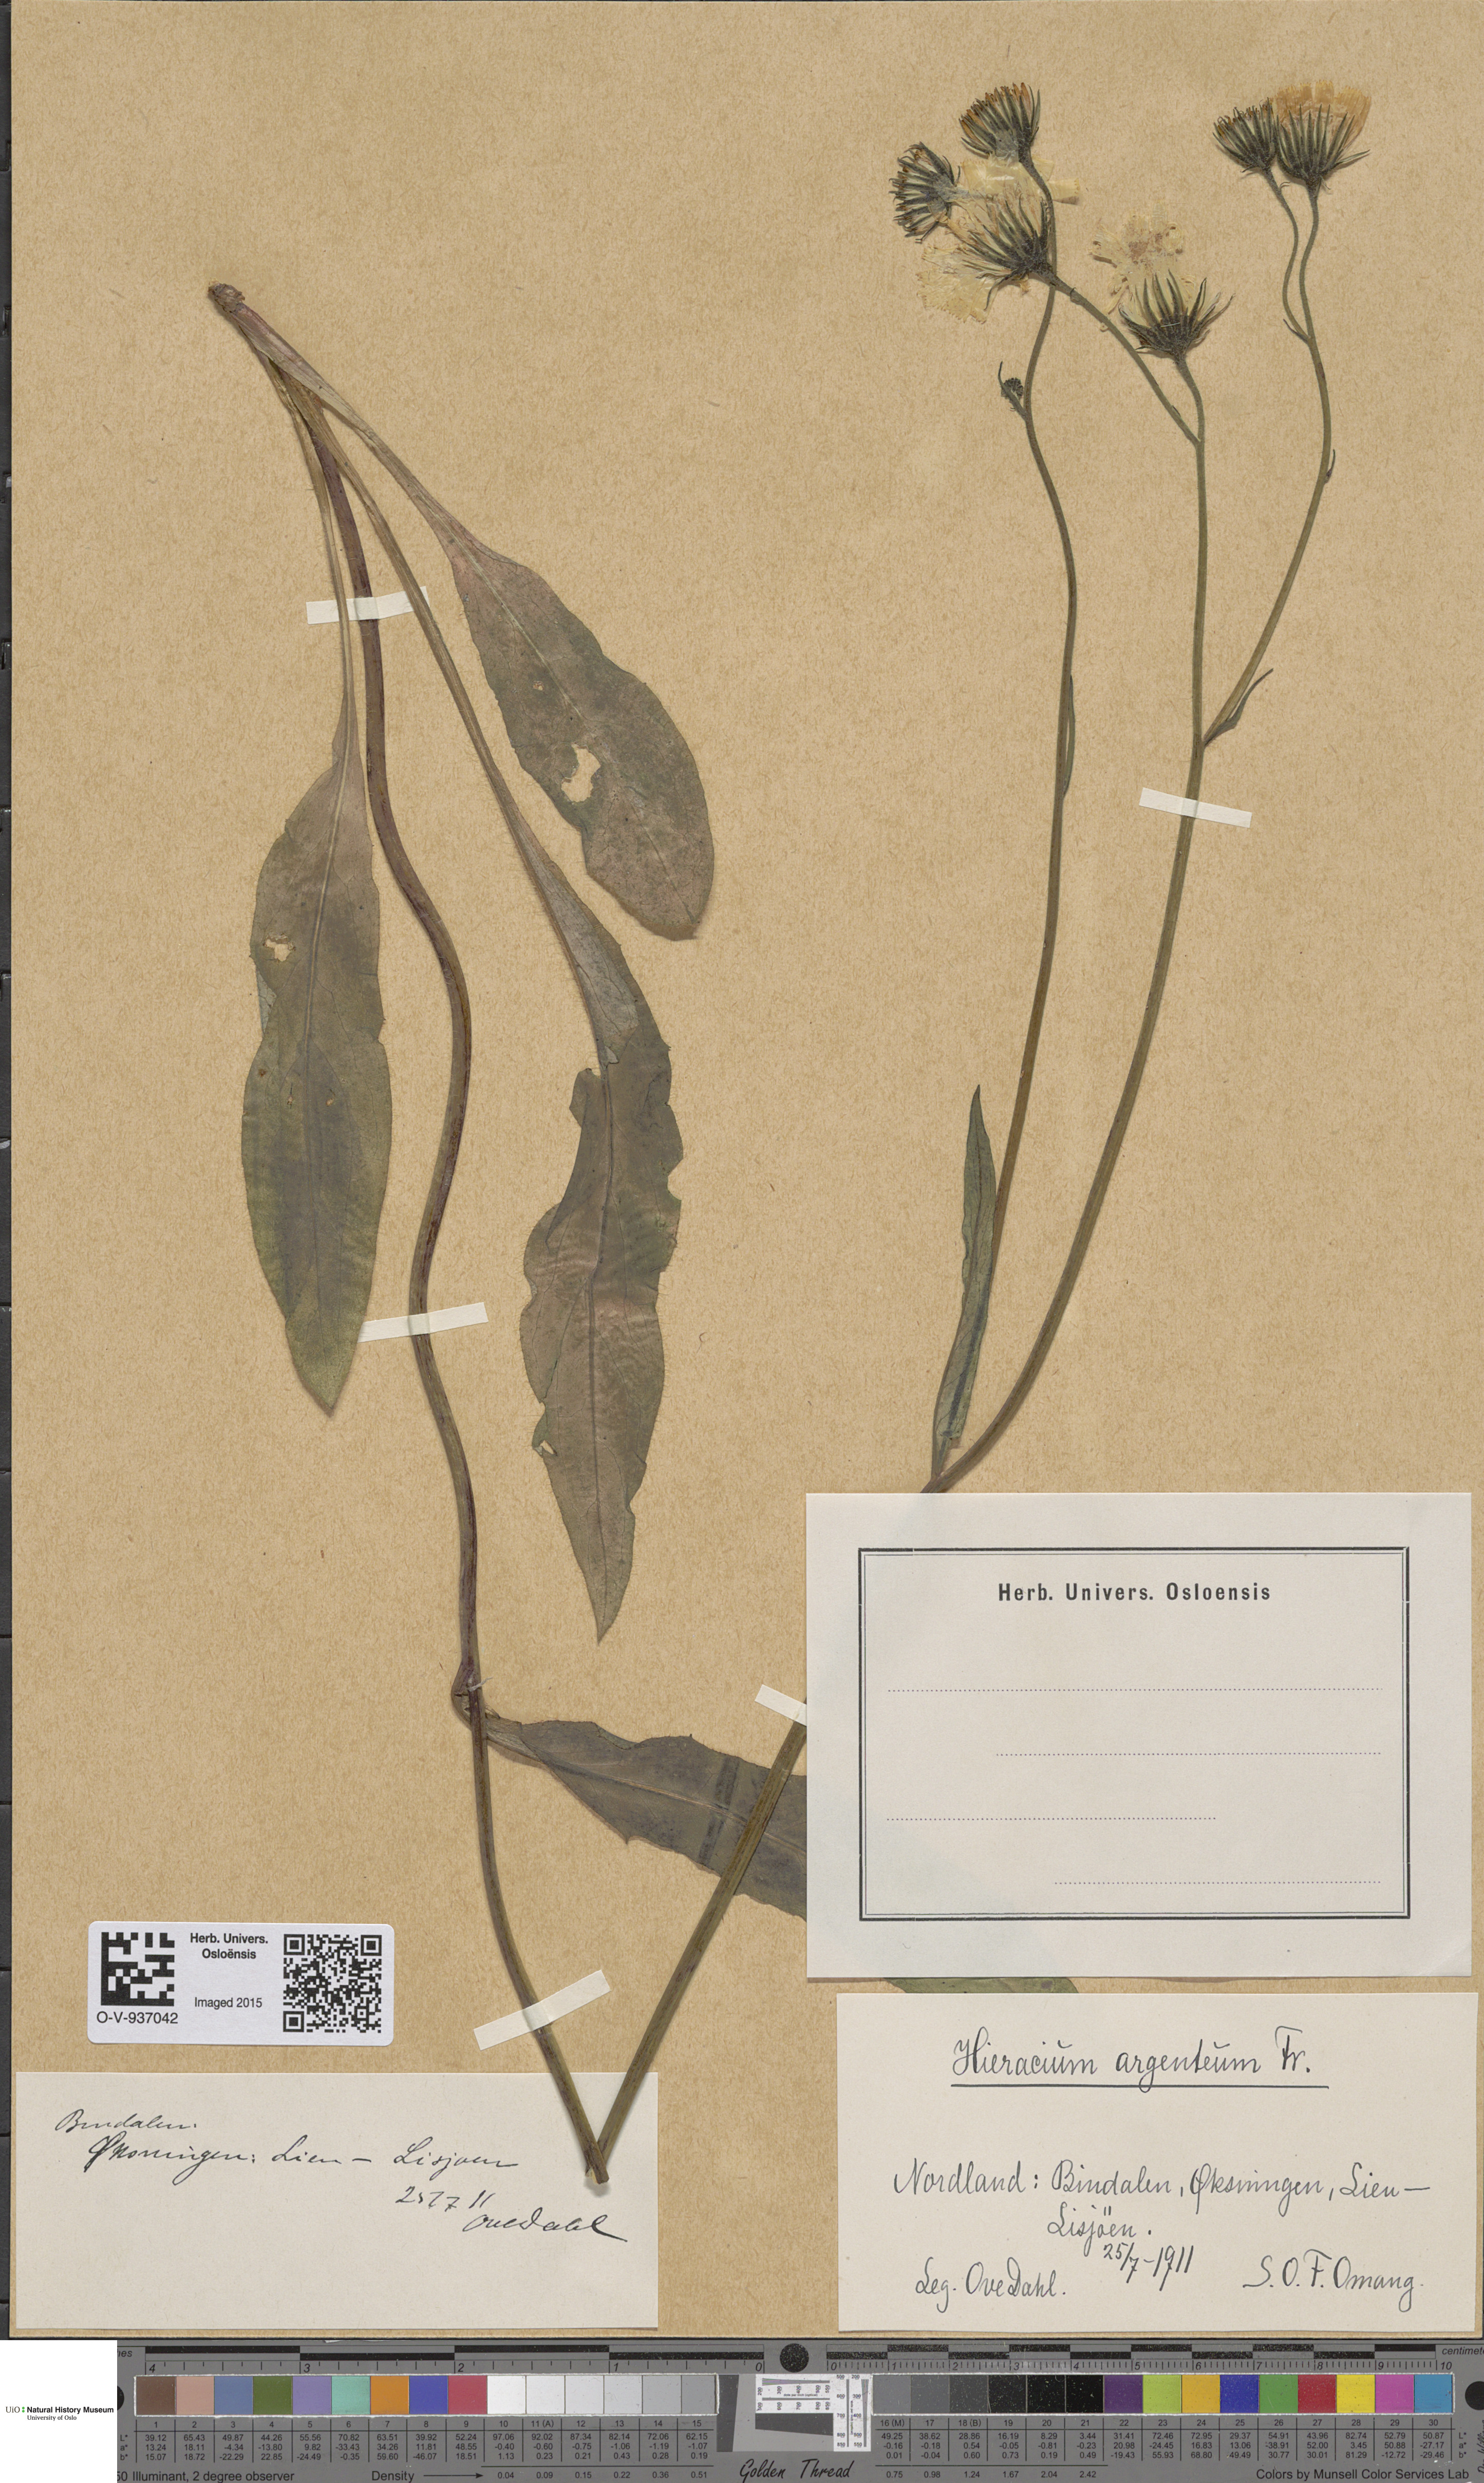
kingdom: Plantae
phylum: Tracheophyta
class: Magnoliopsida
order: Asterales
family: Asteraceae
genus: Hieracium
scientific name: Hieracium argenteum
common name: Silver hawkweed
